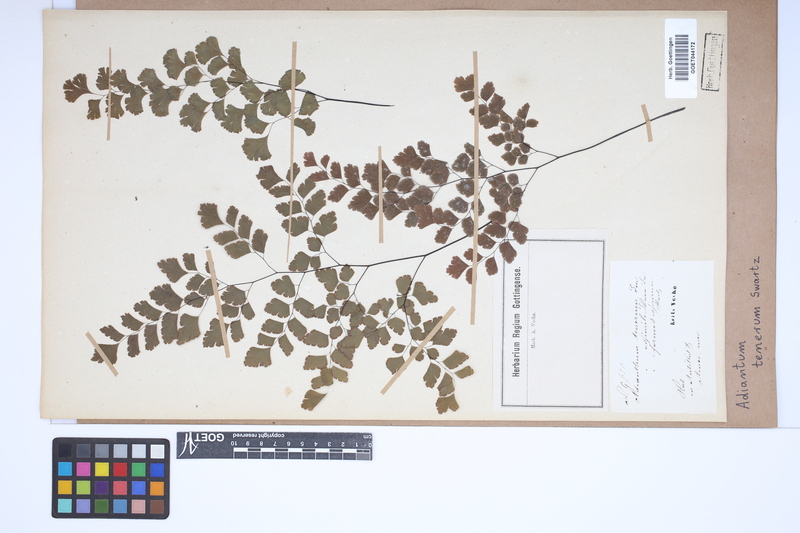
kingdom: Plantae
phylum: Tracheophyta
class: Polypodiopsida
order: Polypodiales
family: Pteridaceae
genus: Adiantum
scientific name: Adiantum tenerum
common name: Fan maidenhair
